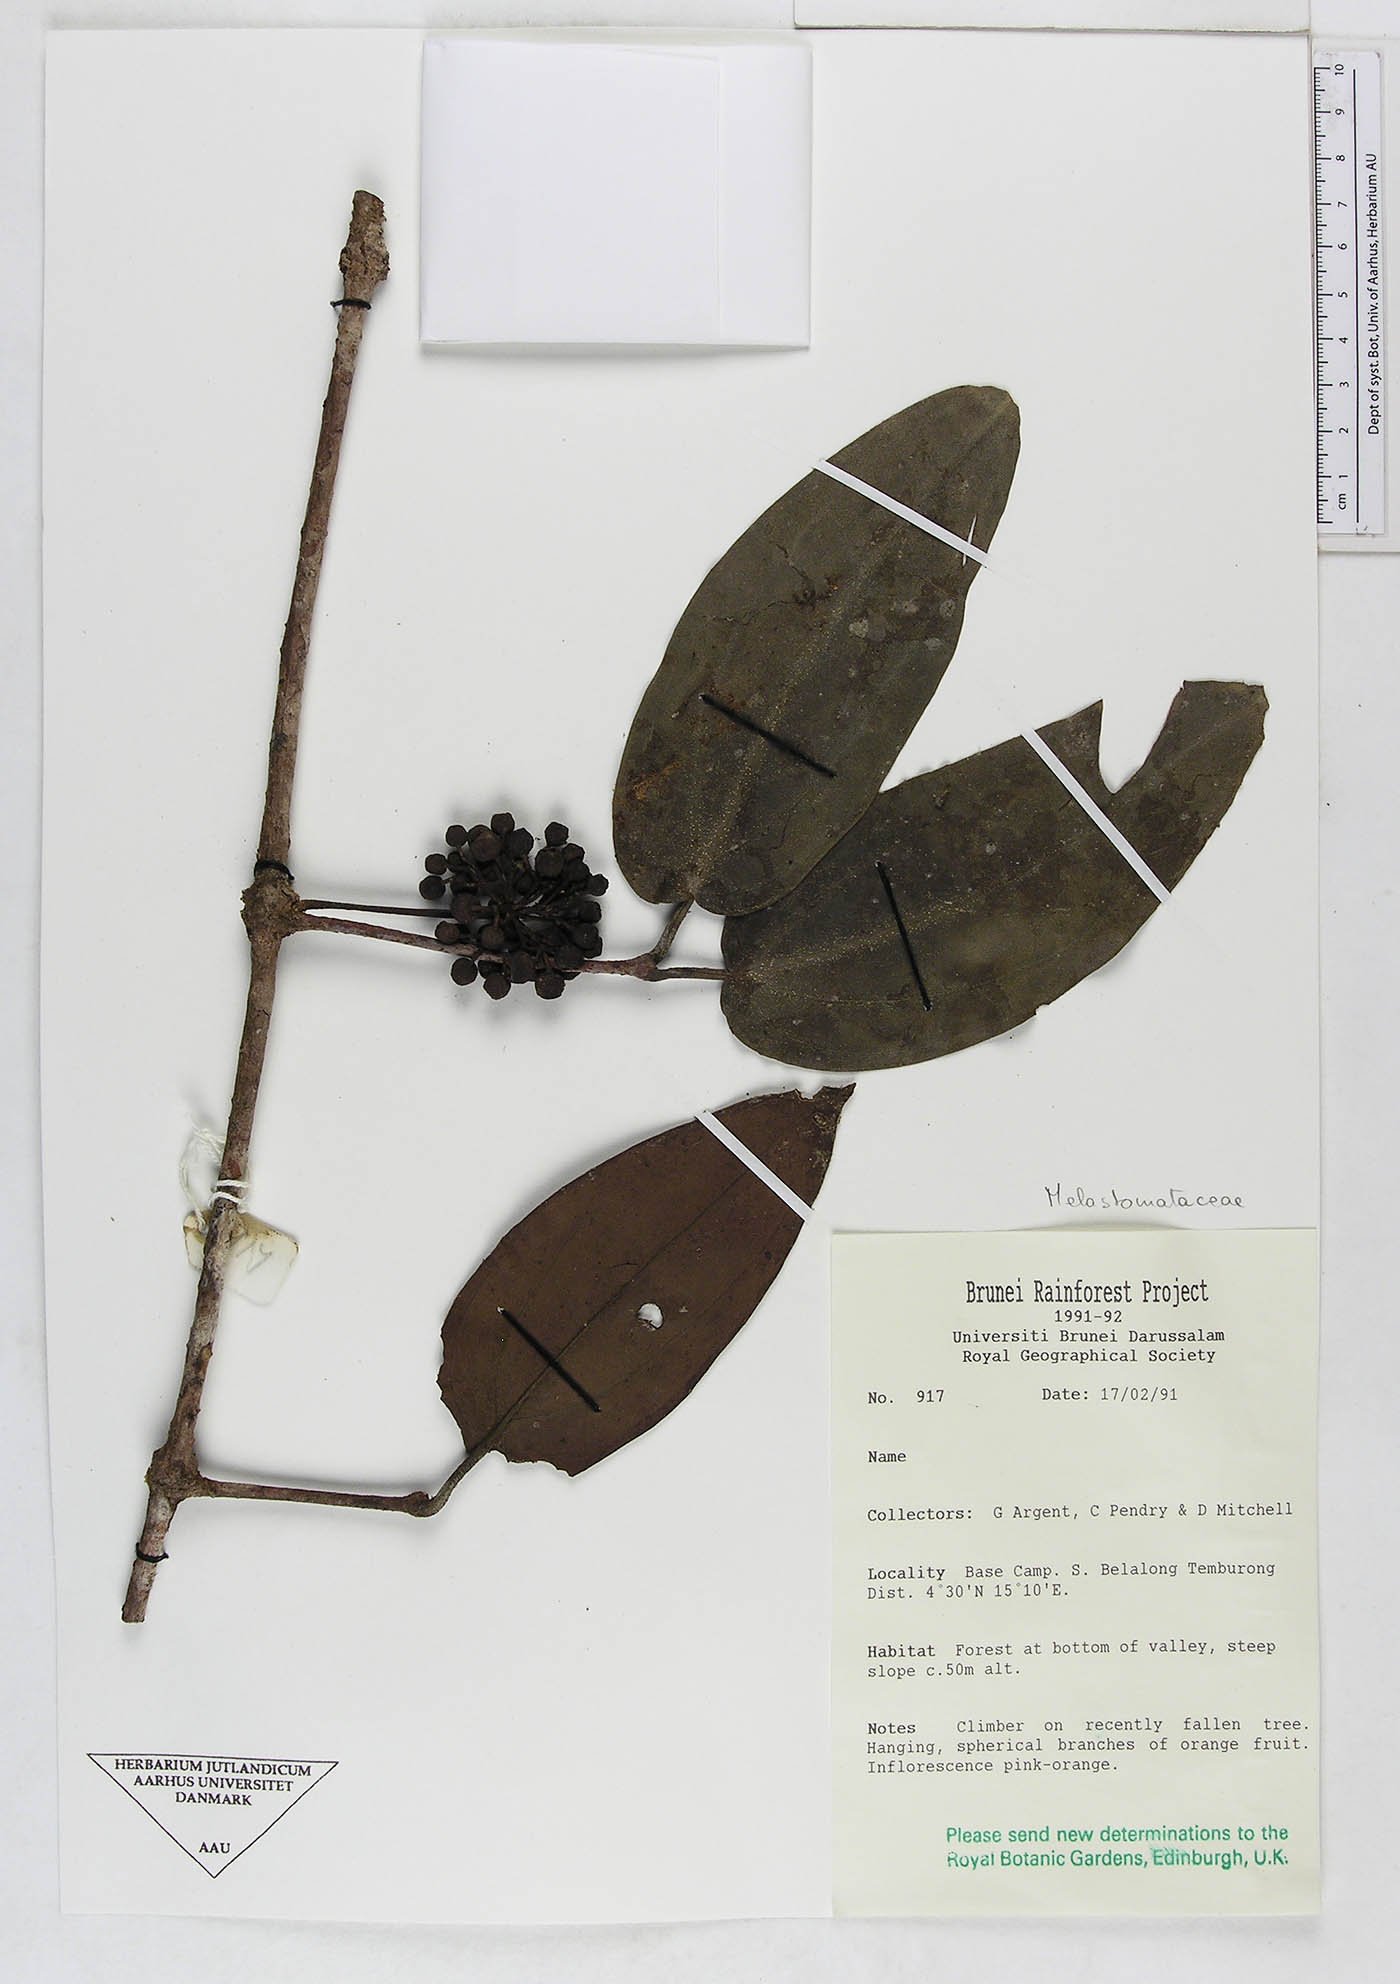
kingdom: Plantae
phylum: Tracheophyta
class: Magnoliopsida
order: Myrtales
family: Melastomataceae
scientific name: Melastomataceae
